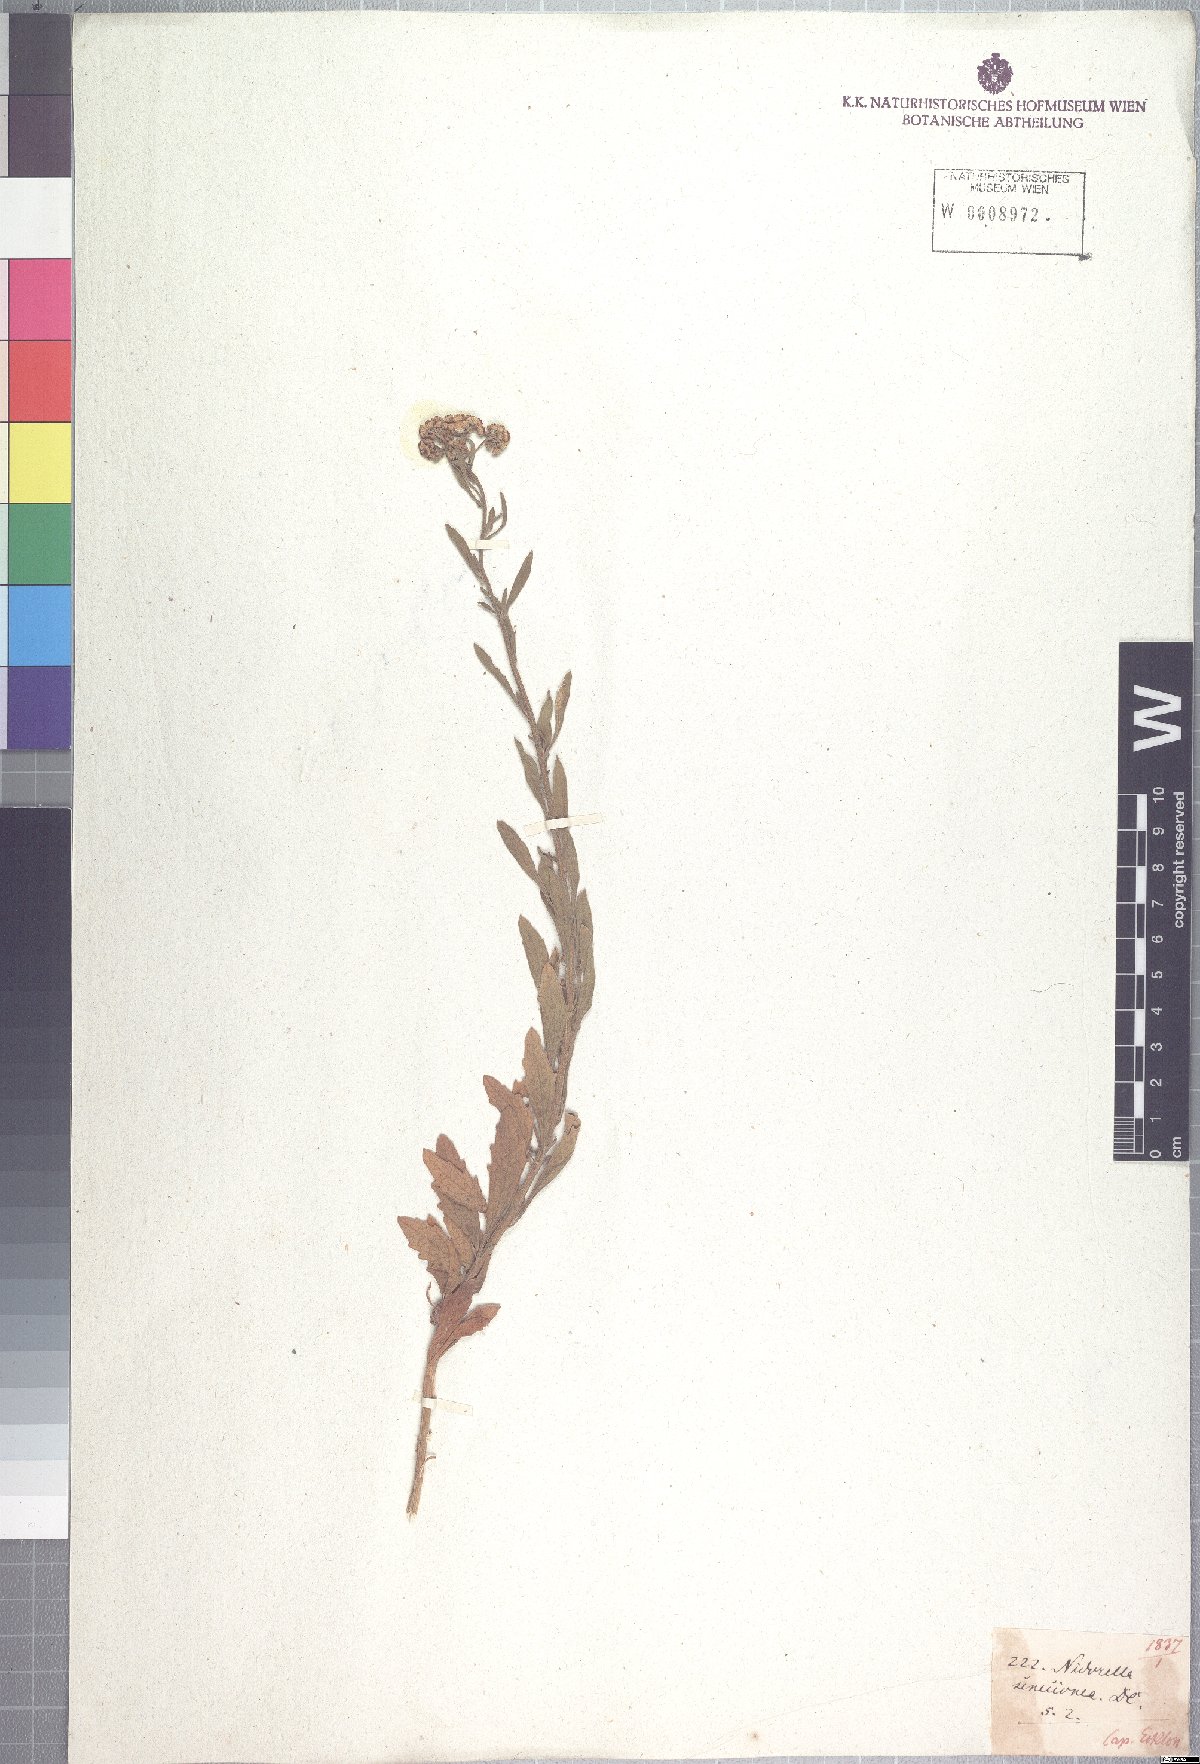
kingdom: Plantae
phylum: Tracheophyta
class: Magnoliopsida
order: Asterales
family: Asteraceae
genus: Nidorella
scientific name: Nidorella auriculata
